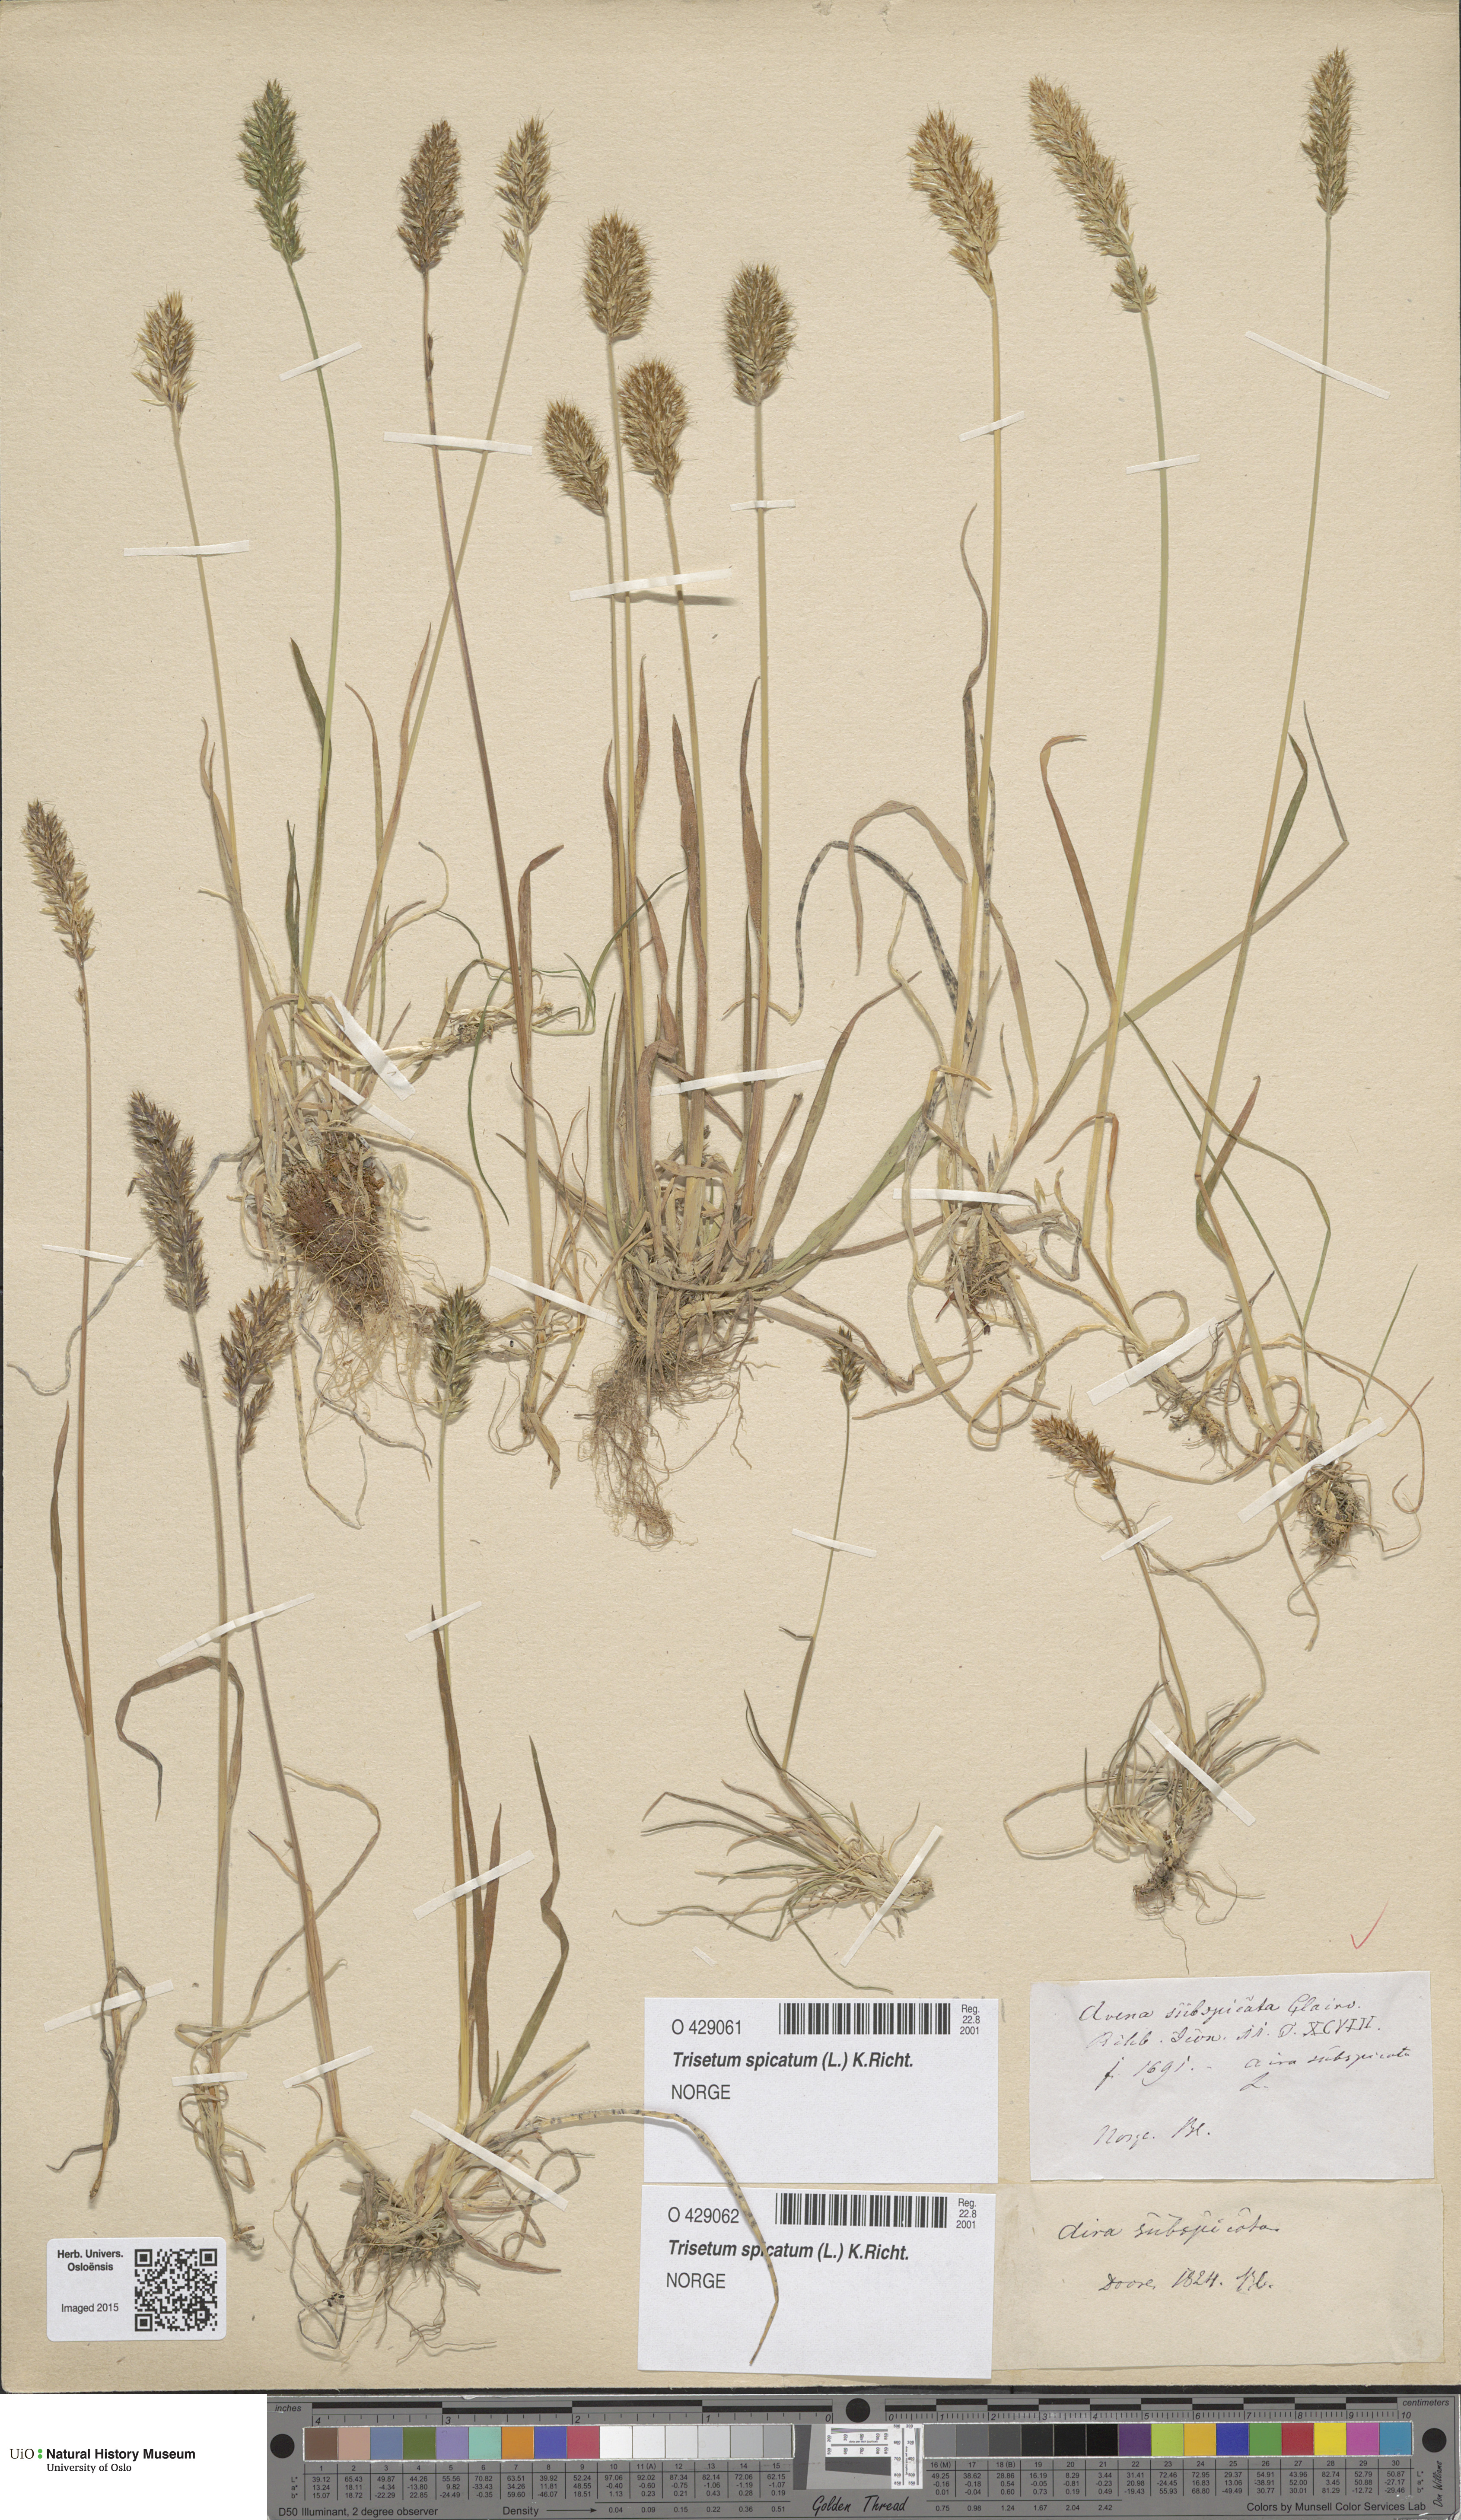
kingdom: Plantae
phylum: Tracheophyta
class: Liliopsida
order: Poales
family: Poaceae
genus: Koeleria
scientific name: Koeleria spicata
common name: Mountain trisetum
